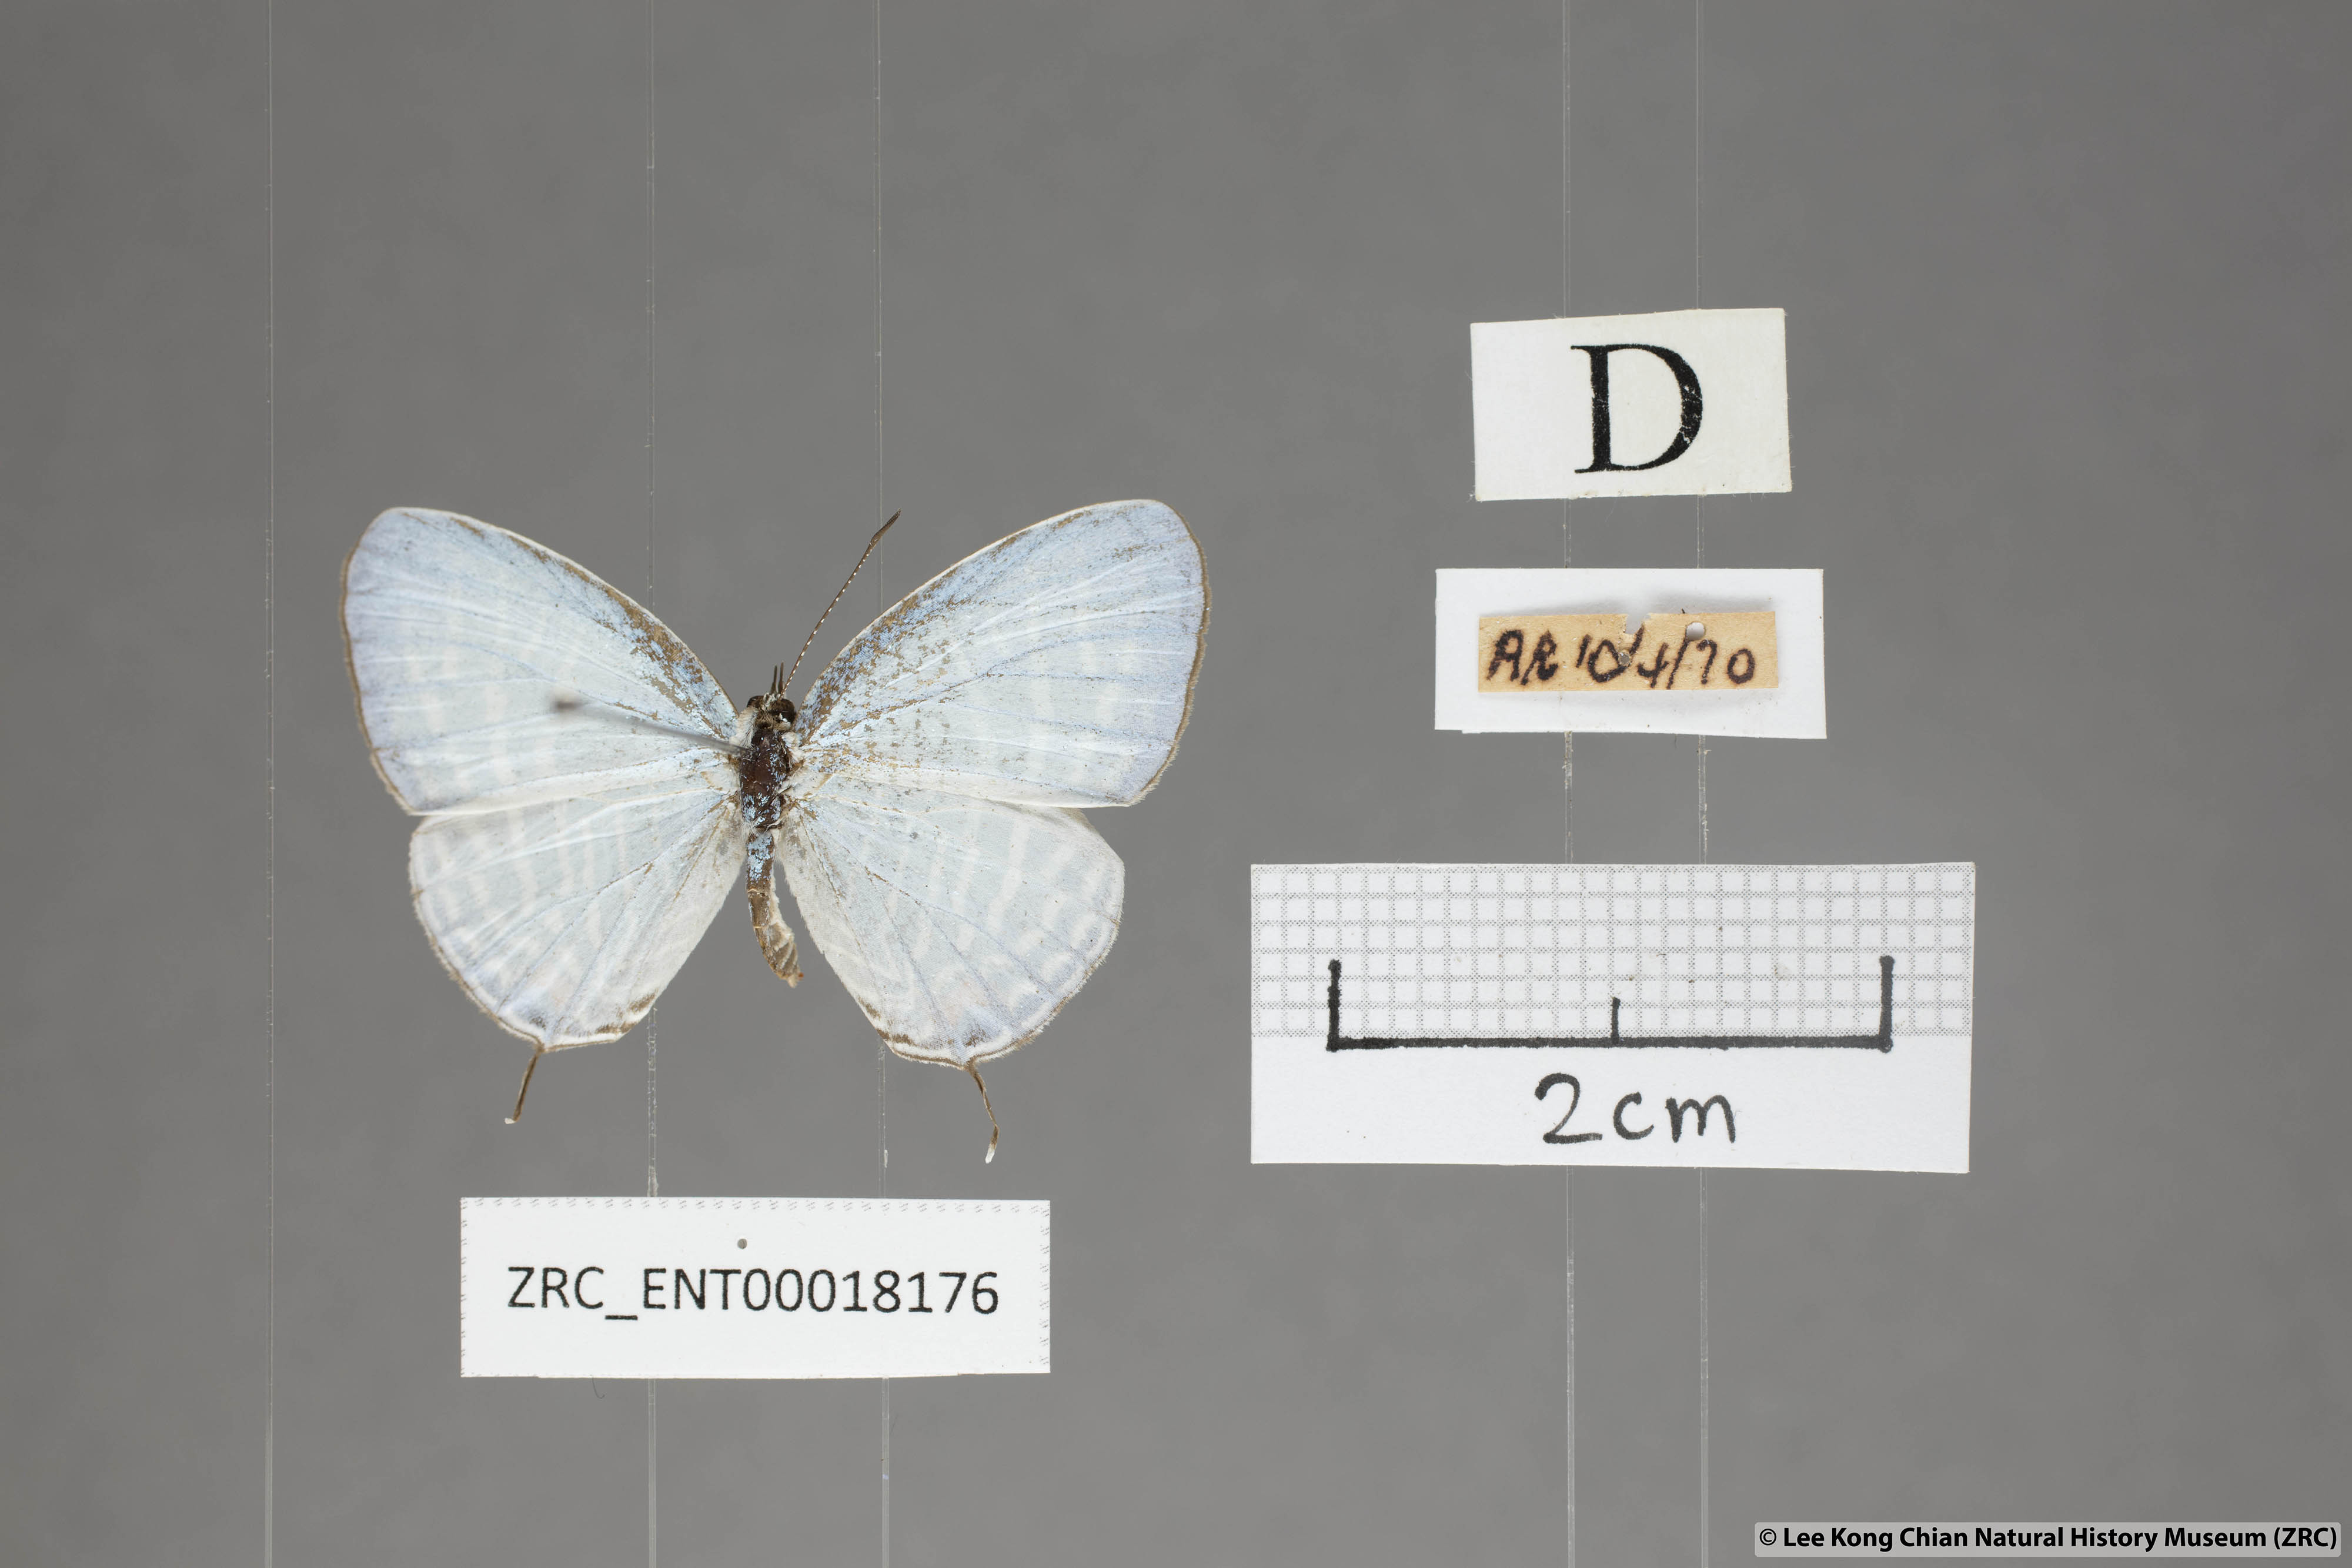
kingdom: Animalia
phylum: Arthropoda
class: Insecta
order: Lepidoptera
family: Lycaenidae
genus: Jamides
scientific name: Jamides pura
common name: White cerulean
